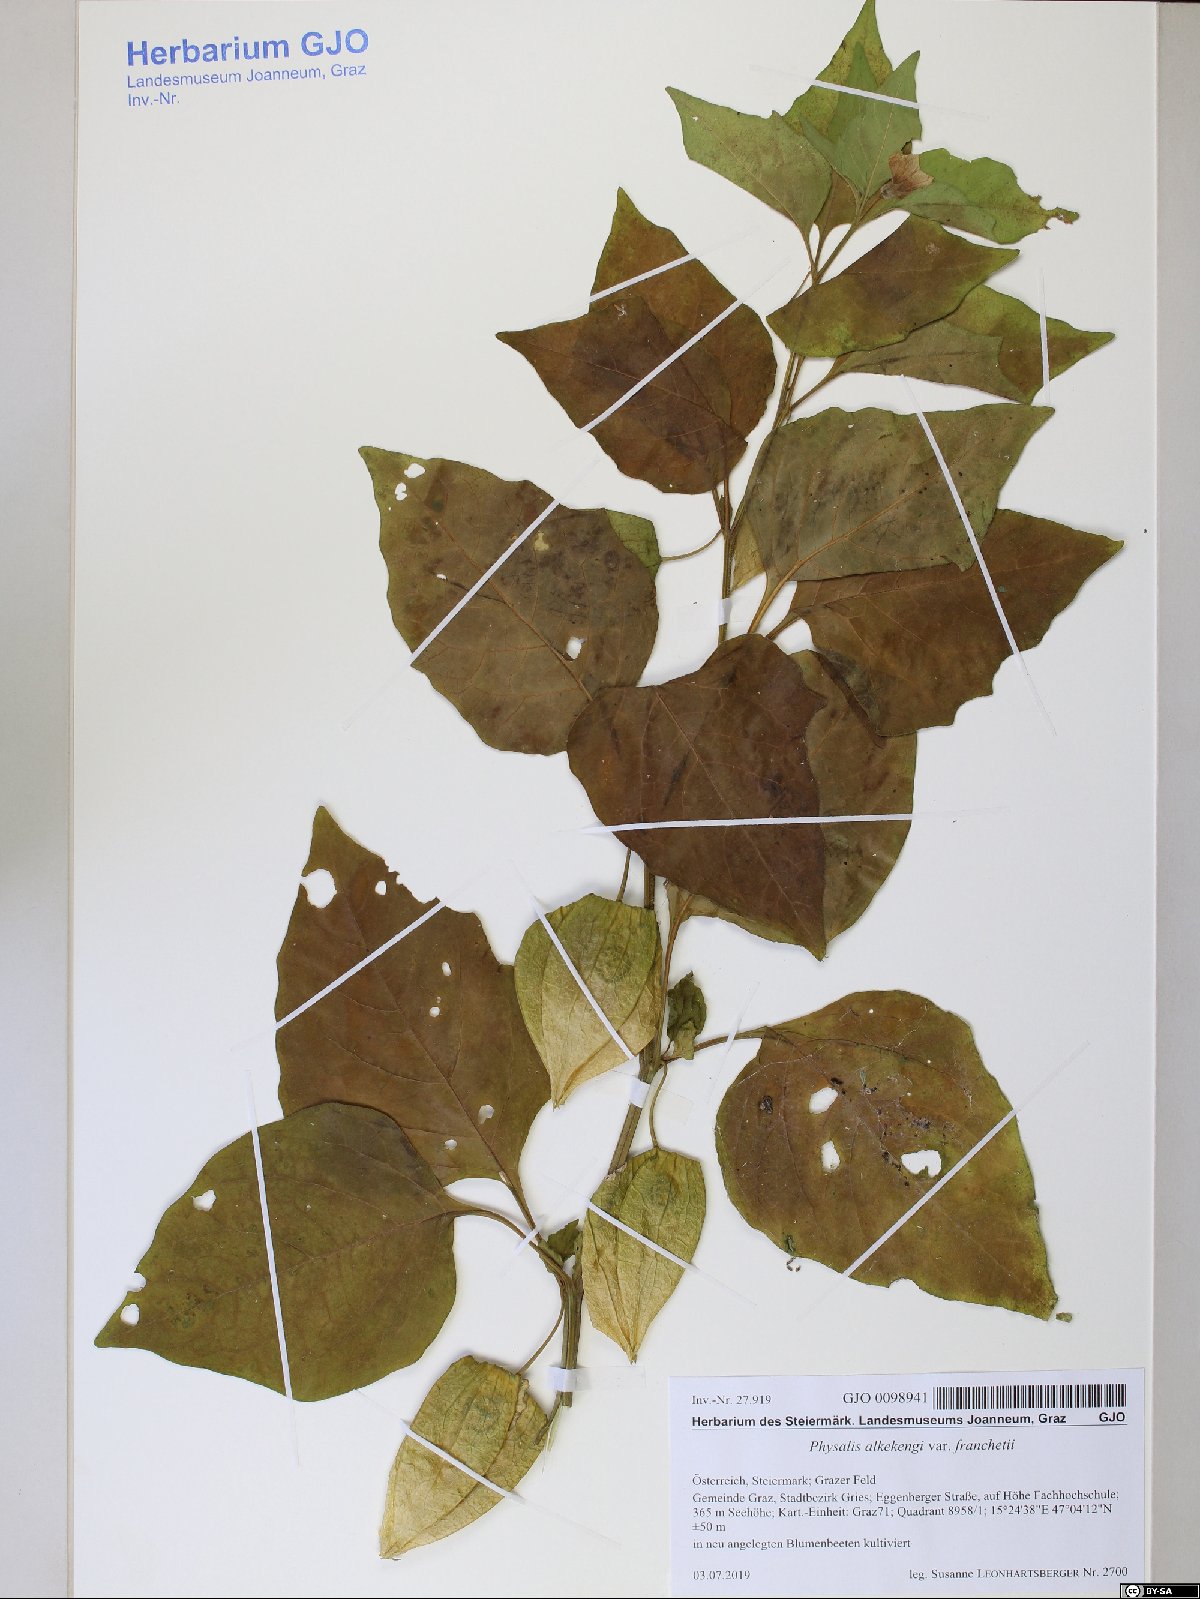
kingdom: Plantae
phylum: Tracheophyta
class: Magnoliopsida
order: Solanales
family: Solanaceae
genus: Alkekengi
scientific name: Alkekengi officinarum
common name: Japanese-lantern
